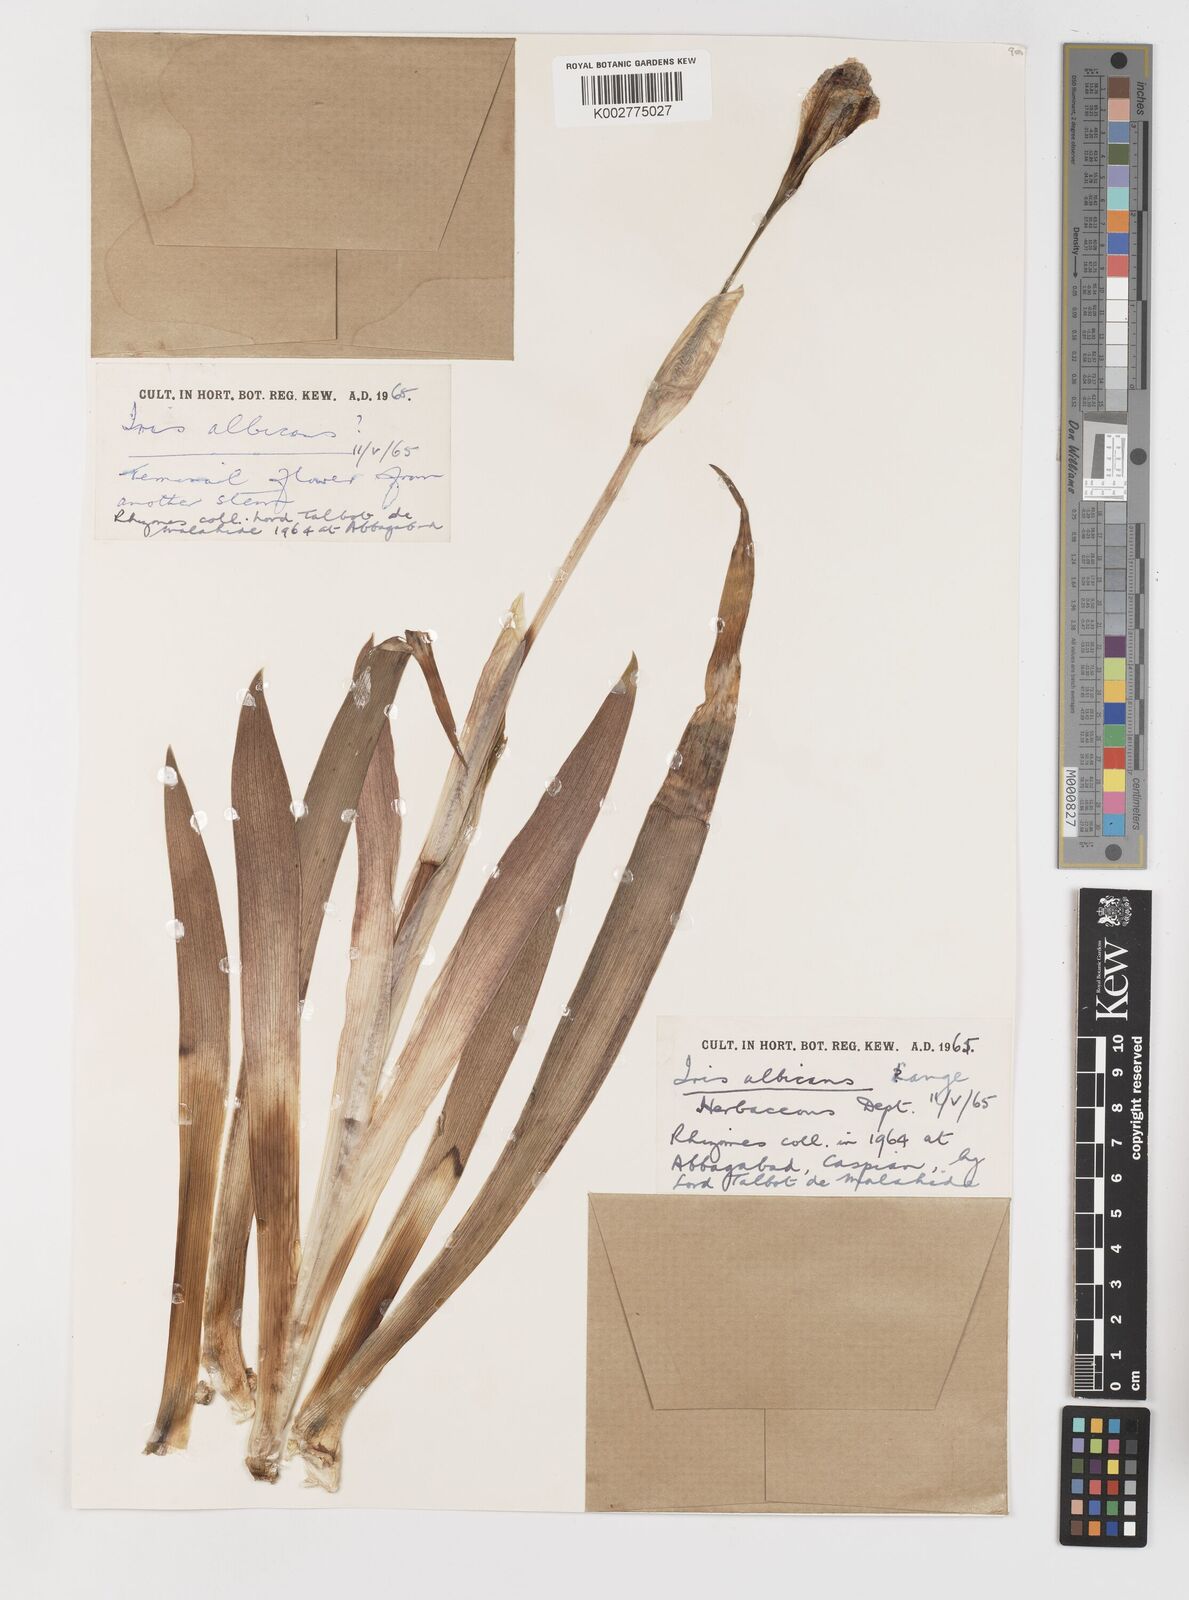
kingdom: Plantae
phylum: Tracheophyta
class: Liliopsida
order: Asparagales
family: Iridaceae
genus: Iris
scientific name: Iris florentina
